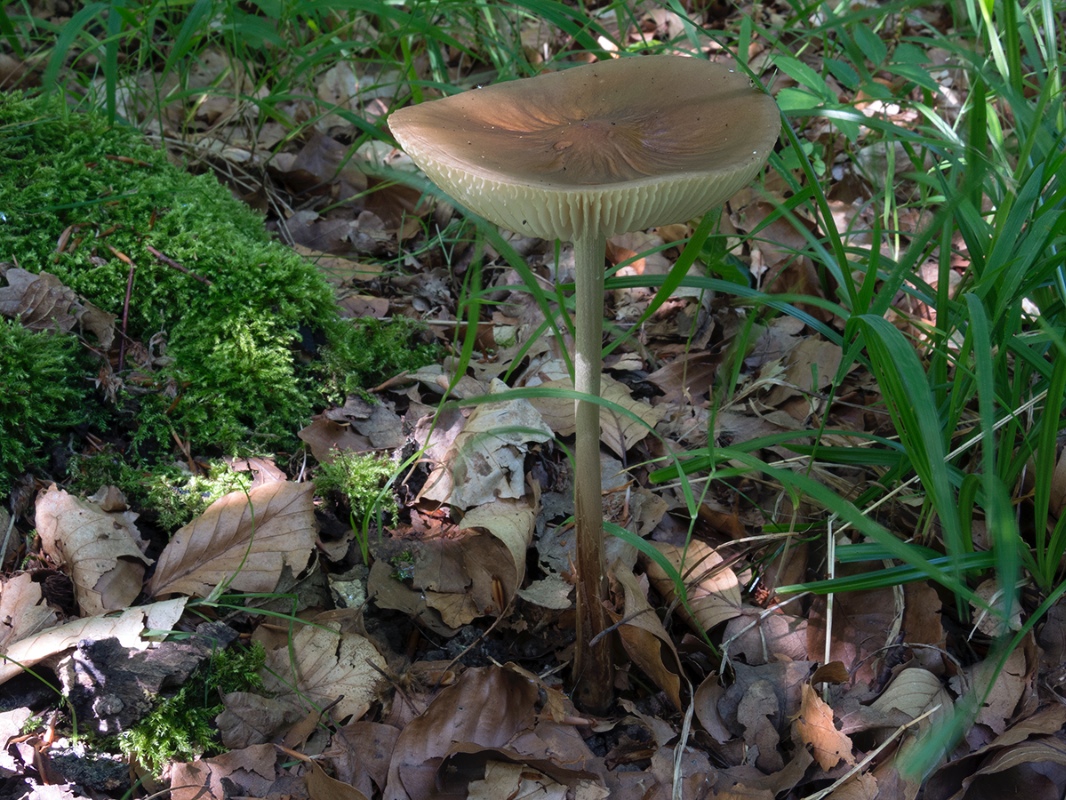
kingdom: Fungi
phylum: Basidiomycota
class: Agaricomycetes
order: Agaricales
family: Physalacriaceae
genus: Hymenopellis
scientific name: Hymenopellis radicata
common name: almindelig pælerodshat
